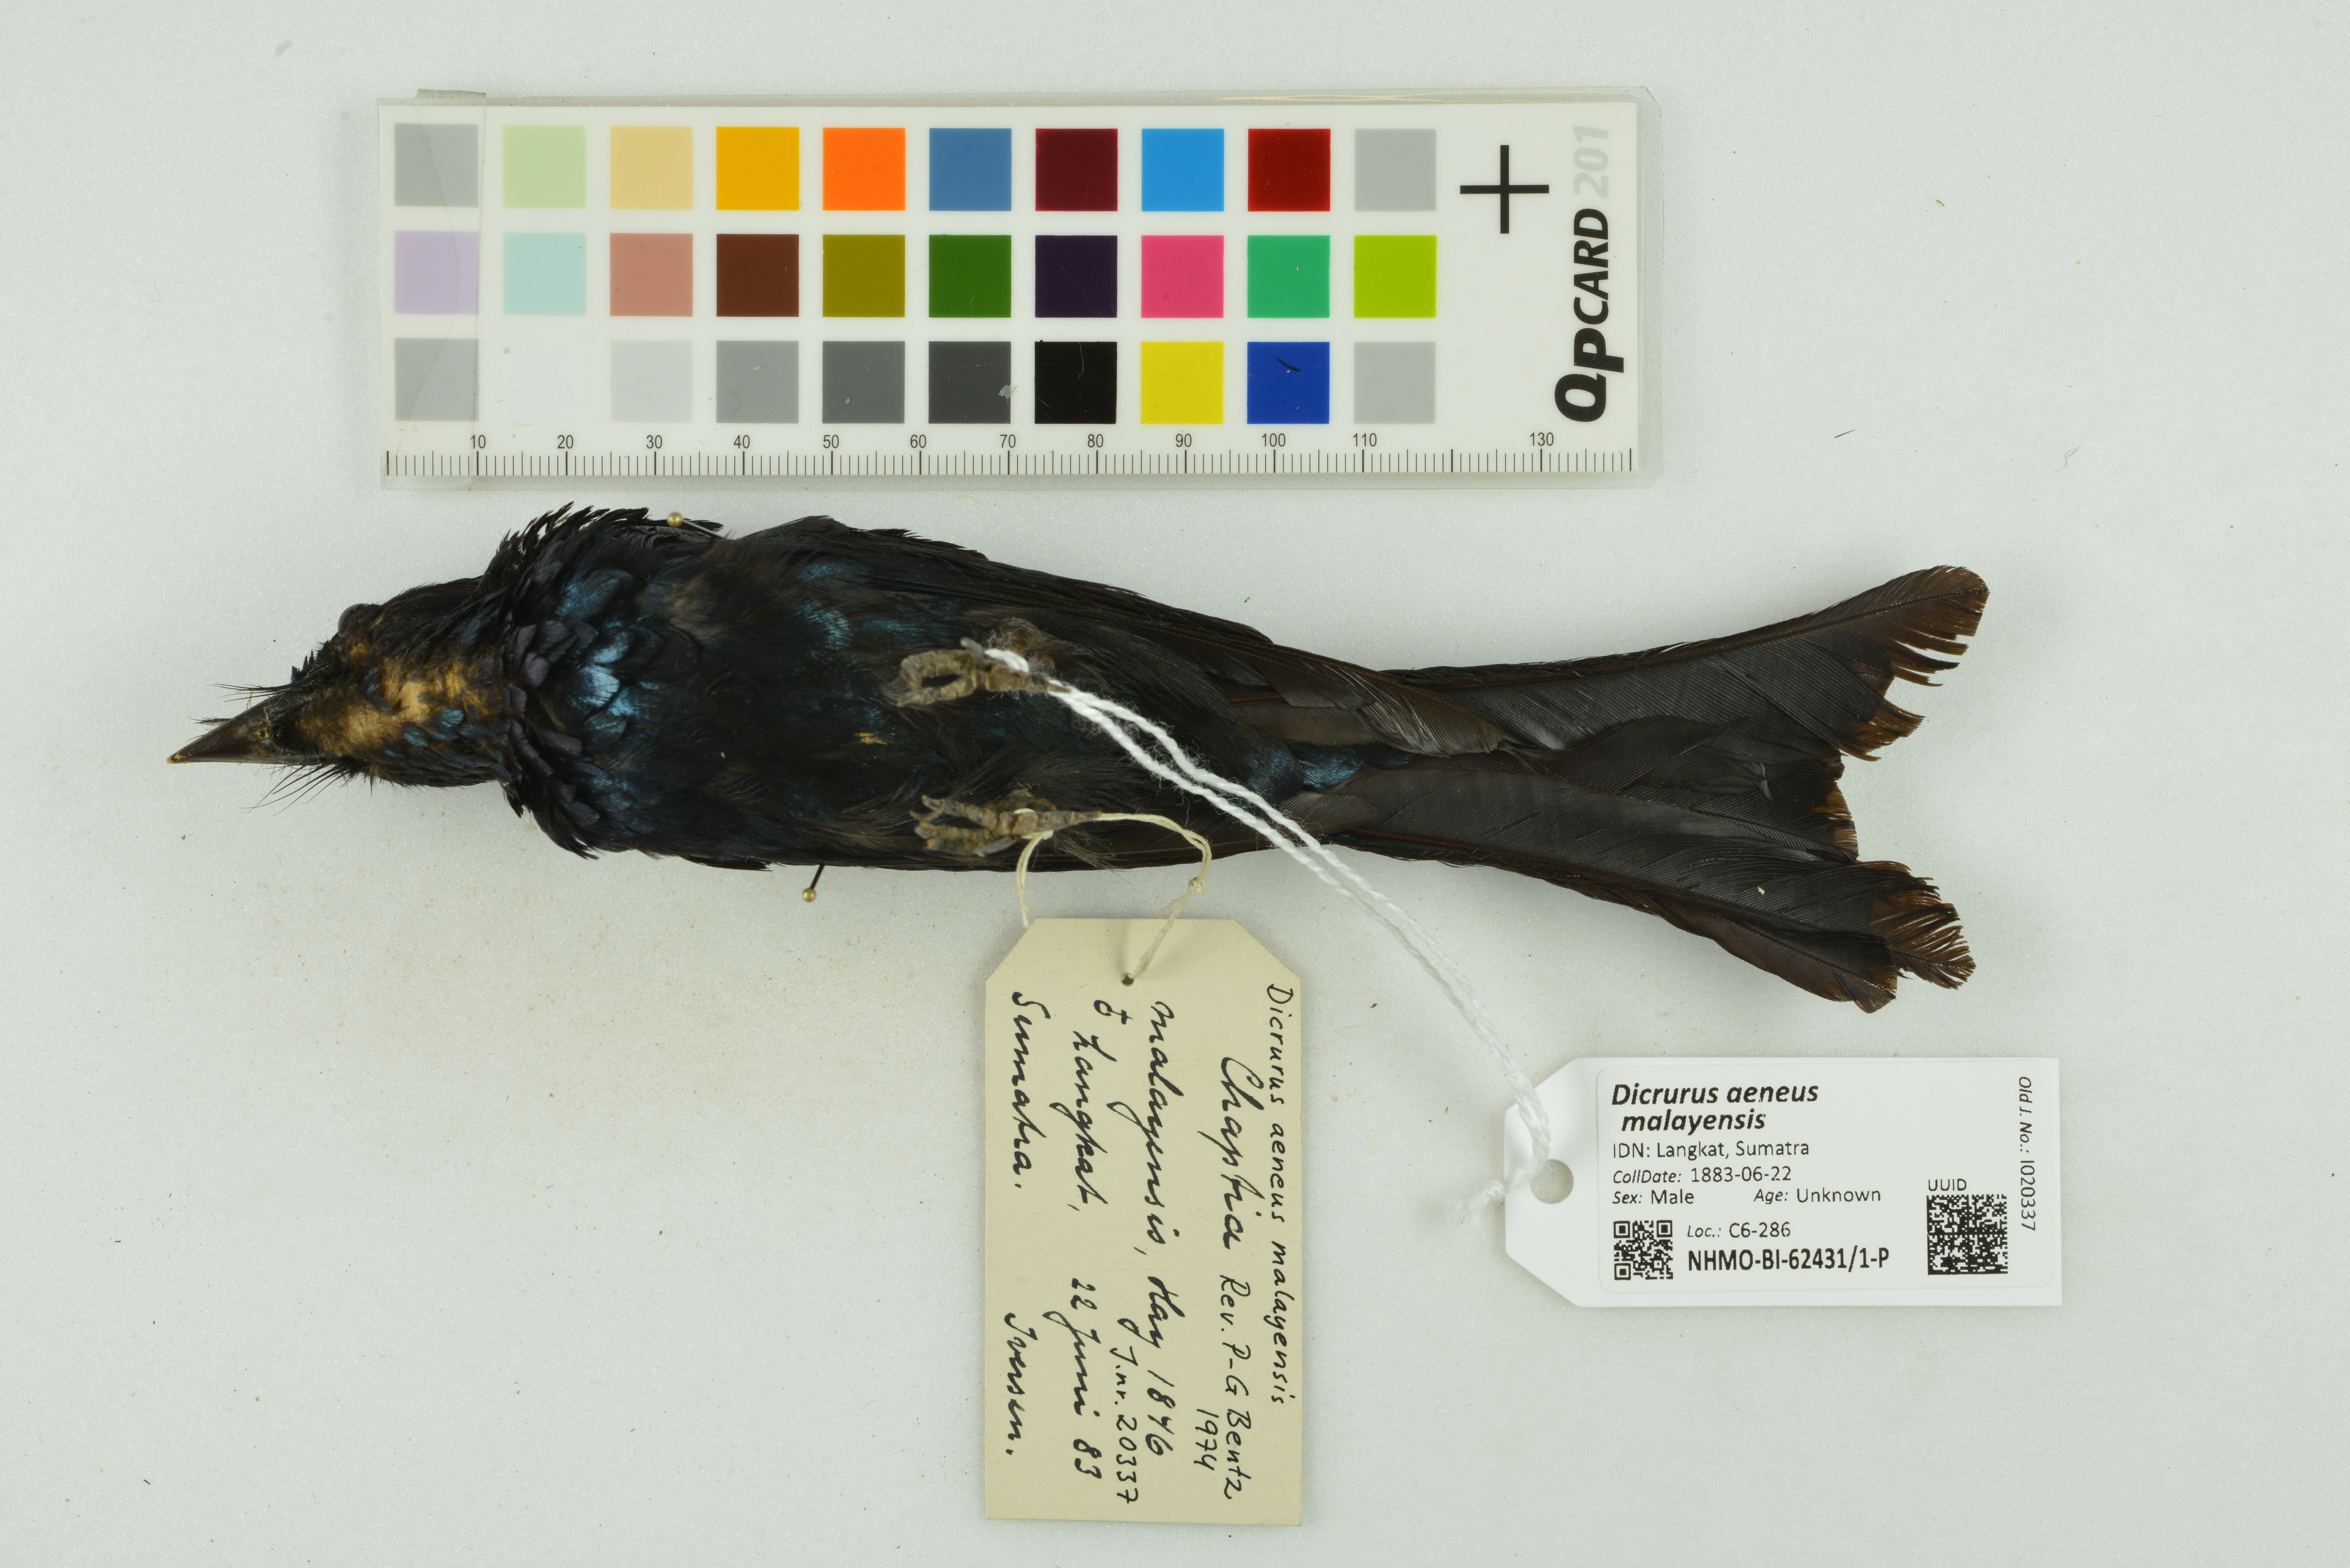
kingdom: Animalia
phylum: Chordata
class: Aves
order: Passeriformes
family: Dicruridae
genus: Dicrurus
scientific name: Dicrurus aeneus
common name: Bronzed drongo
